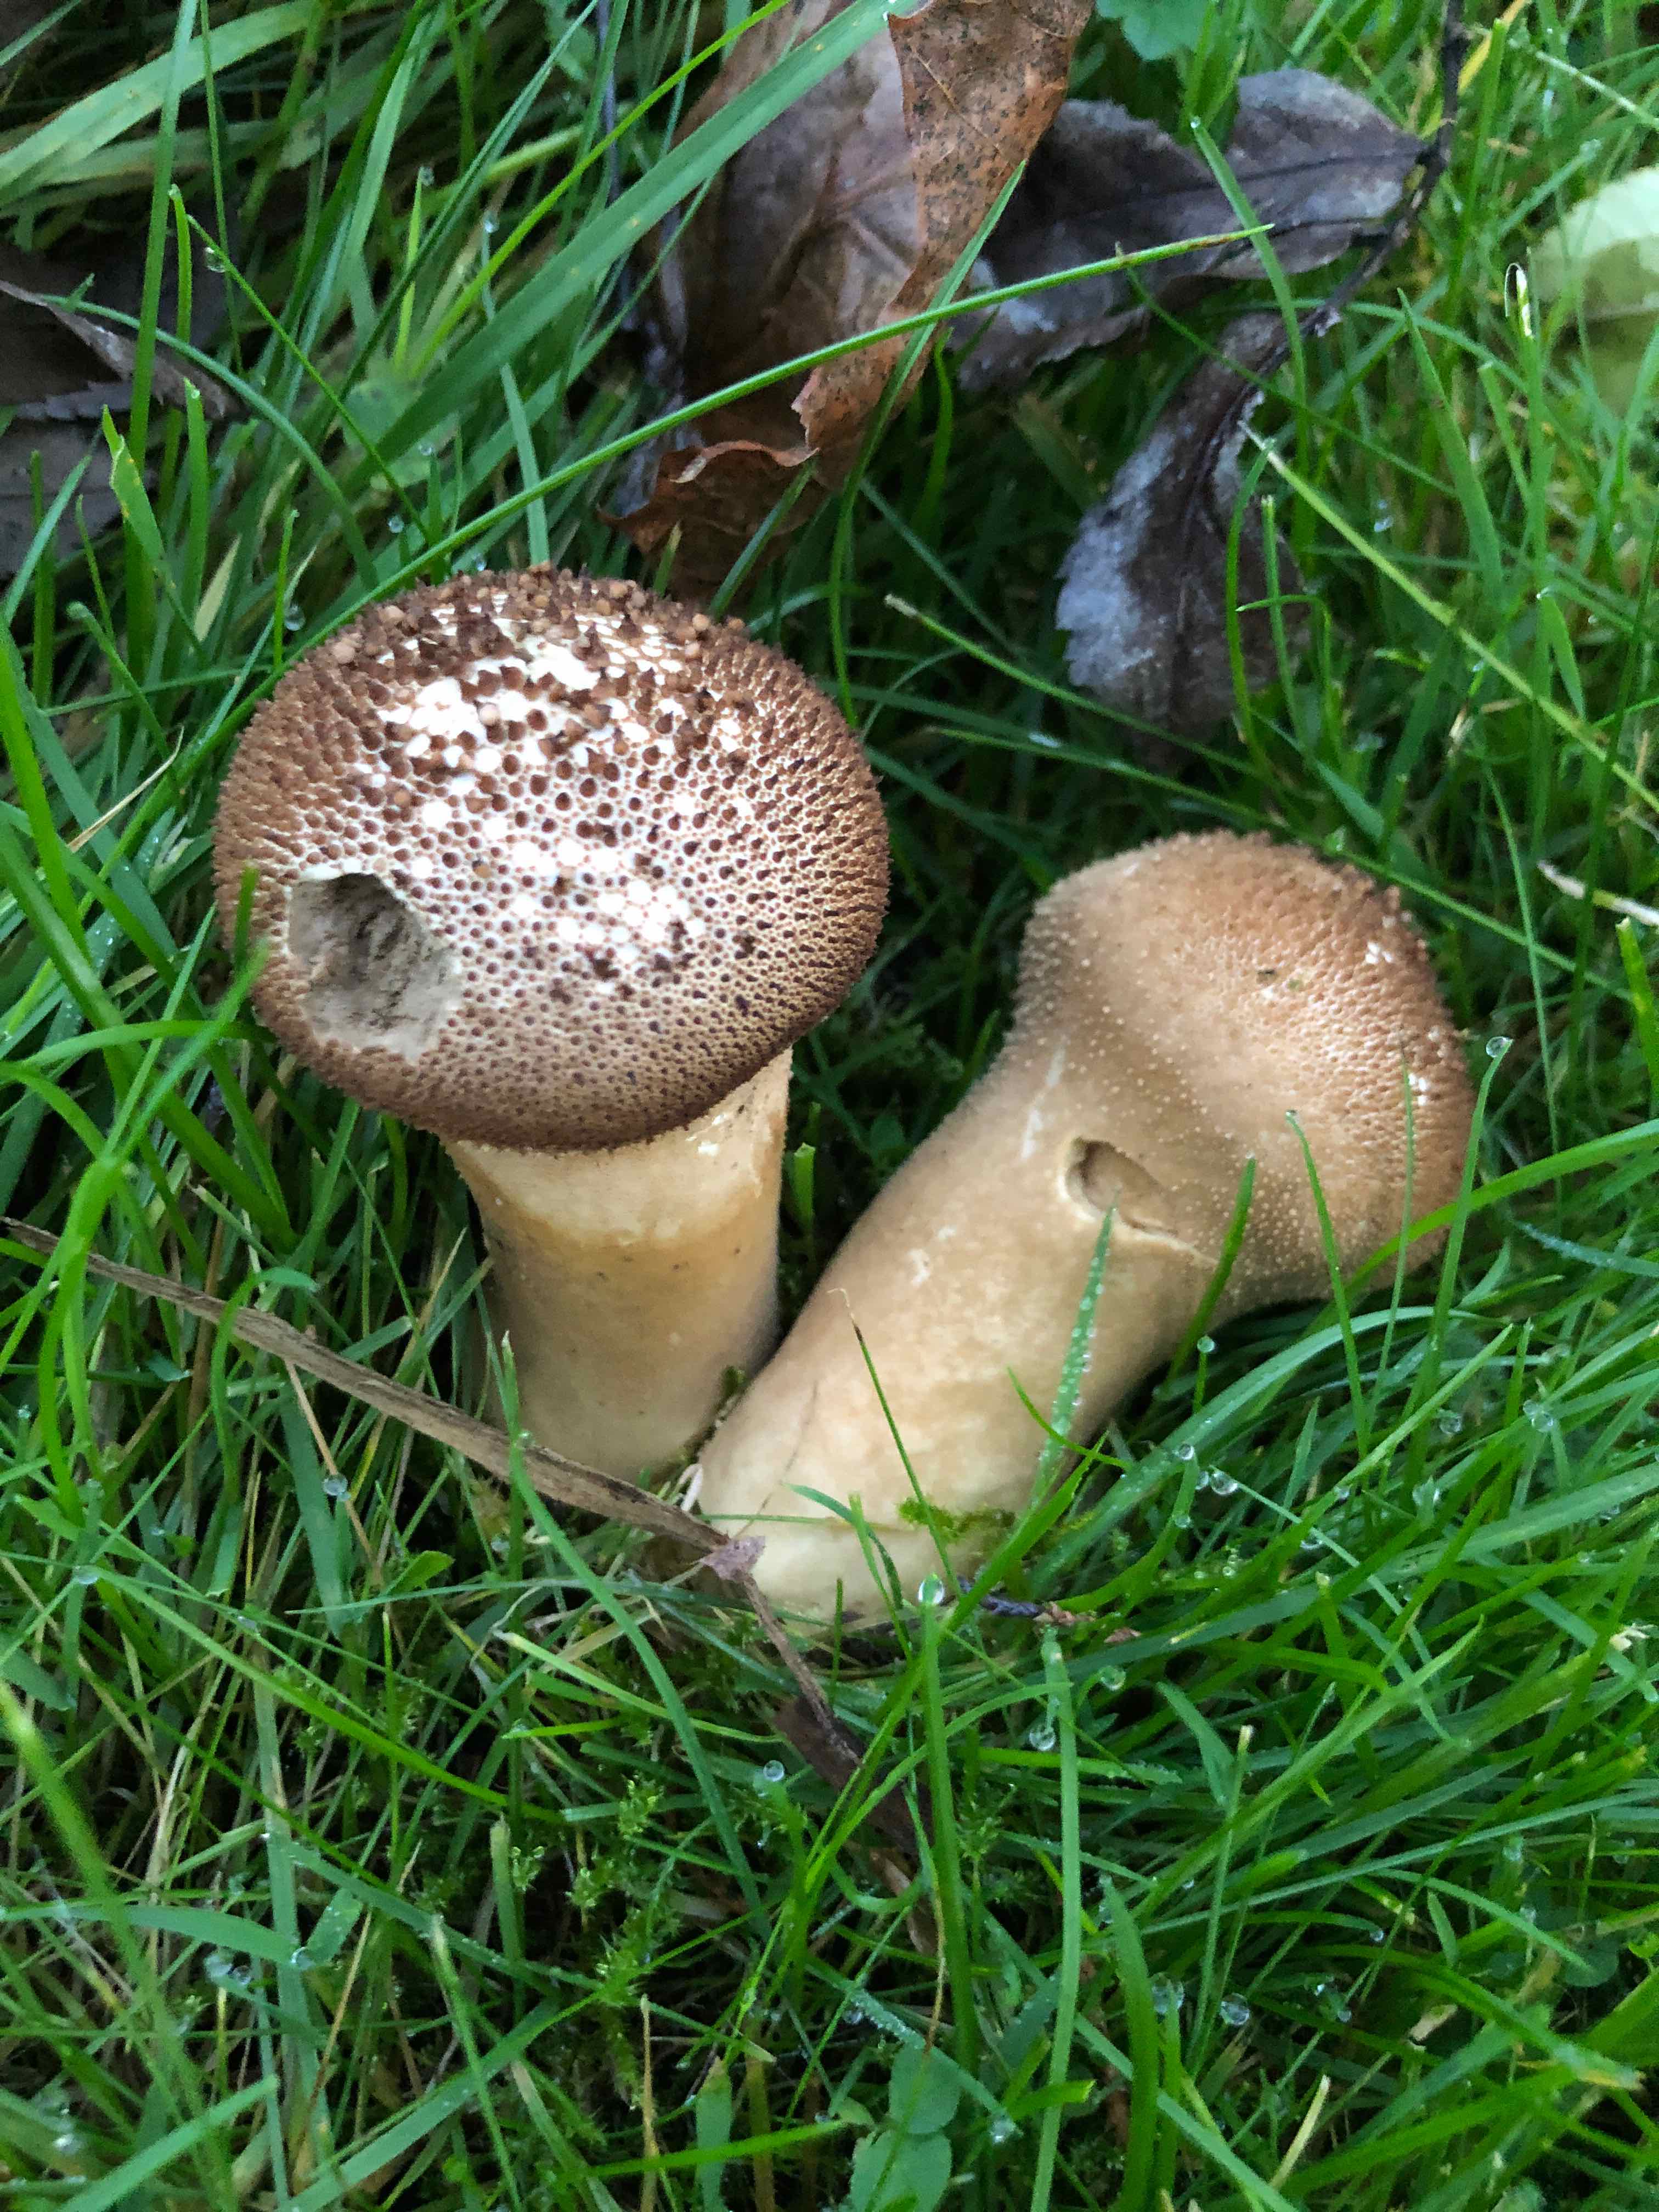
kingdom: Fungi
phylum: Basidiomycota
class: Agaricomycetes
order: Agaricales
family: Lycoperdaceae
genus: Lycoperdon
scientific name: Lycoperdon perlatum
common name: krystal-støvbold
